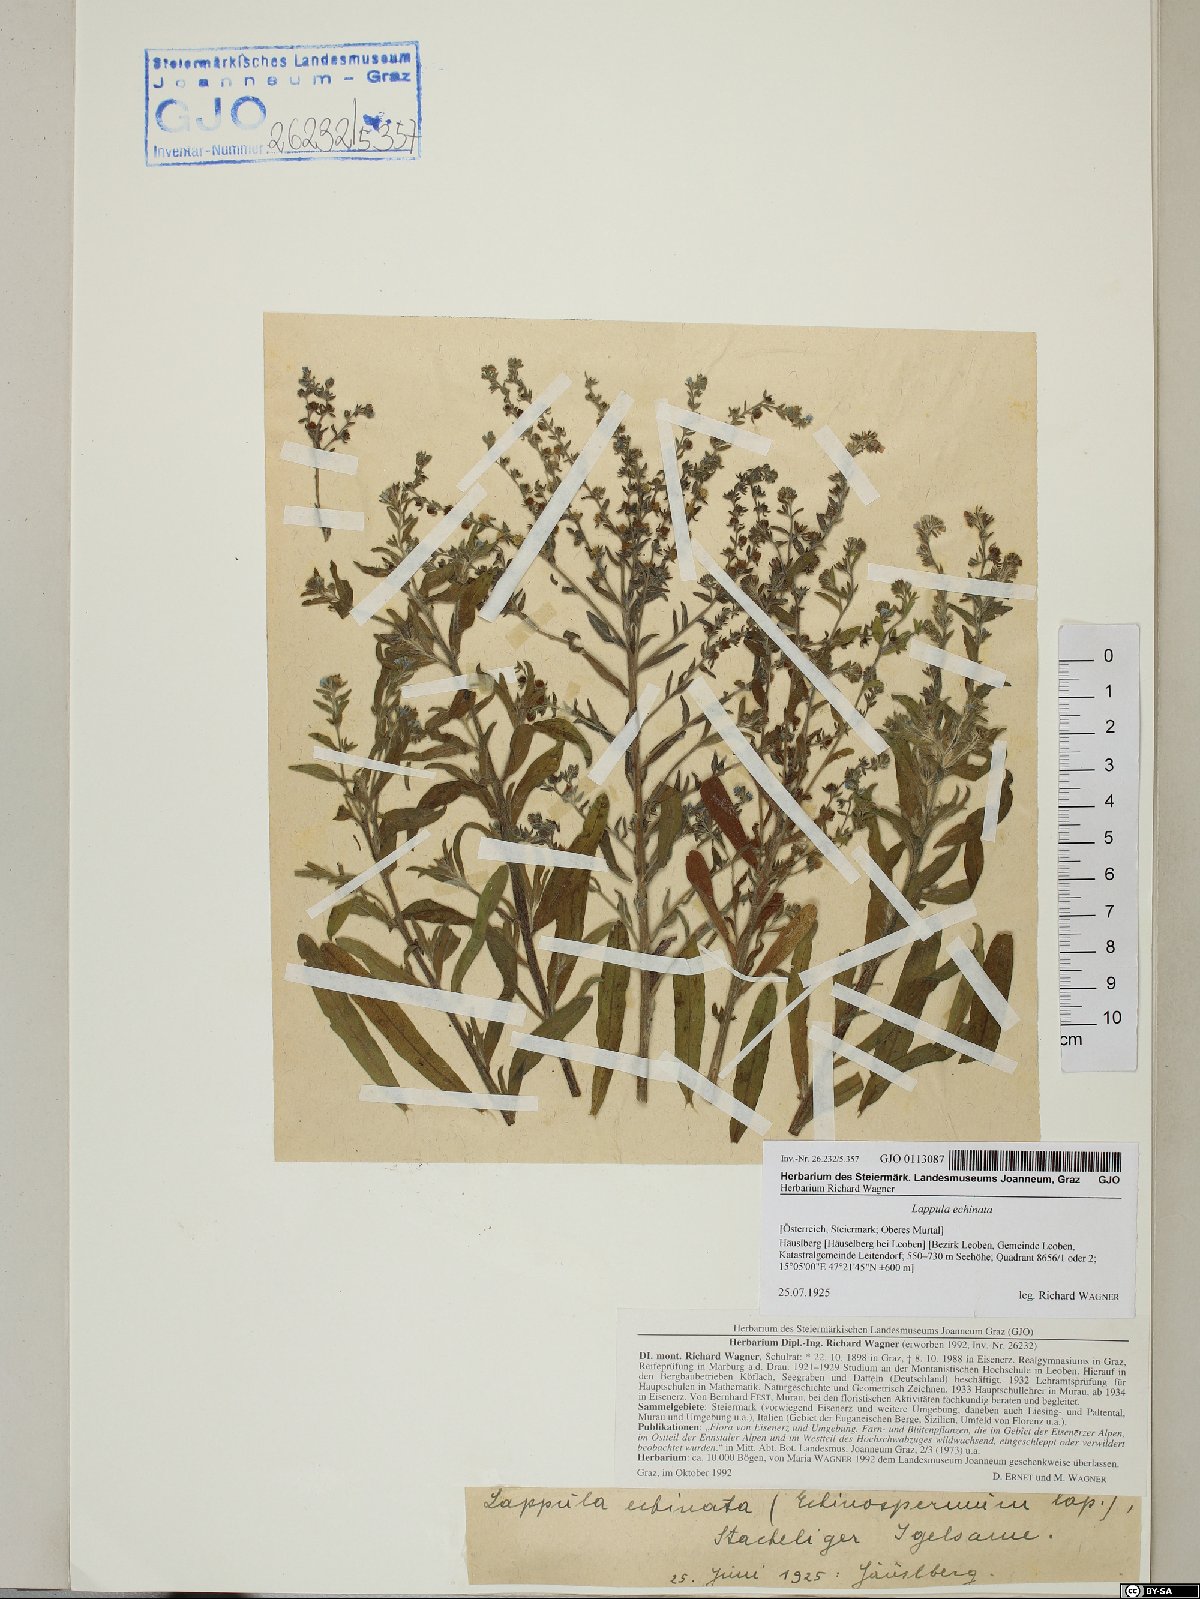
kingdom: Plantae
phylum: Tracheophyta
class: Magnoliopsida
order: Boraginales
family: Boraginaceae
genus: Lappula
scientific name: Lappula squarrosa
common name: European stickseed
